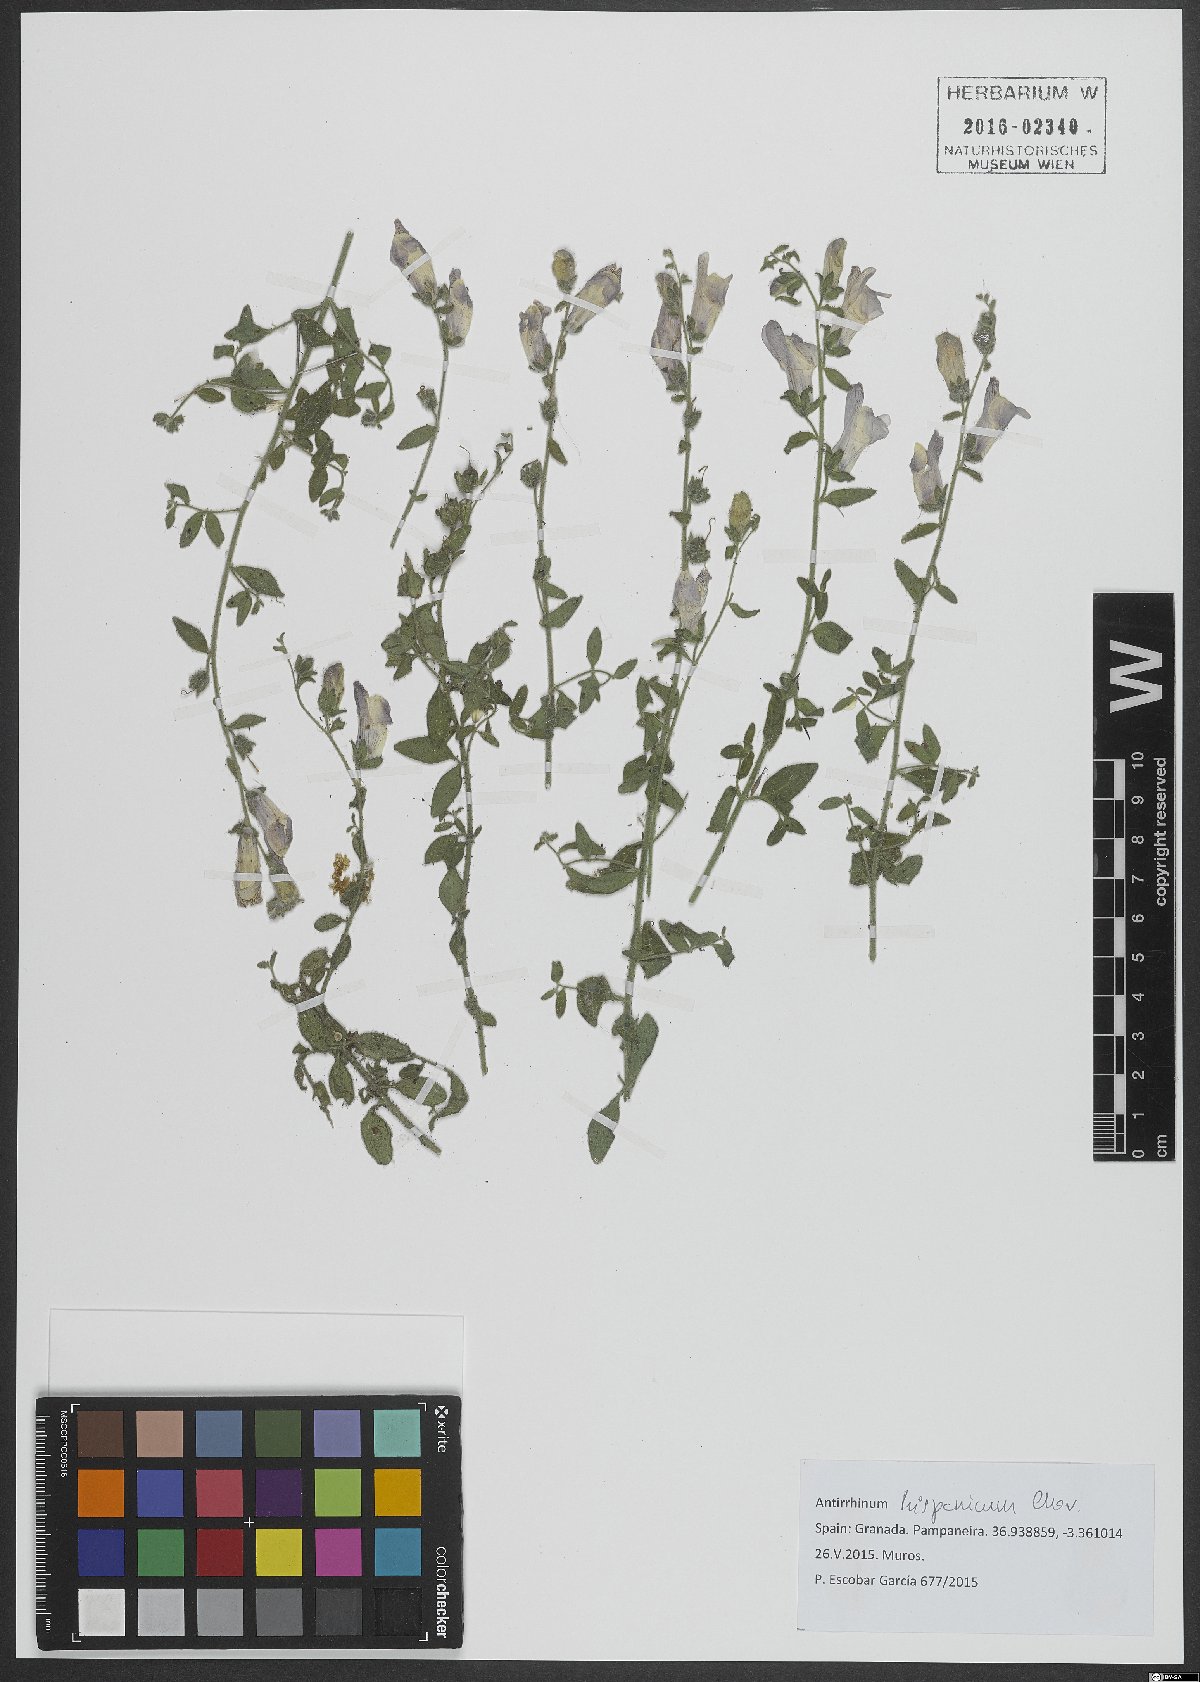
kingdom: Plantae
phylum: Tracheophyta
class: Magnoliopsida
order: Lamiales
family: Plantaginaceae
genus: Antirrhinum
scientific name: Antirrhinum hispanicum
